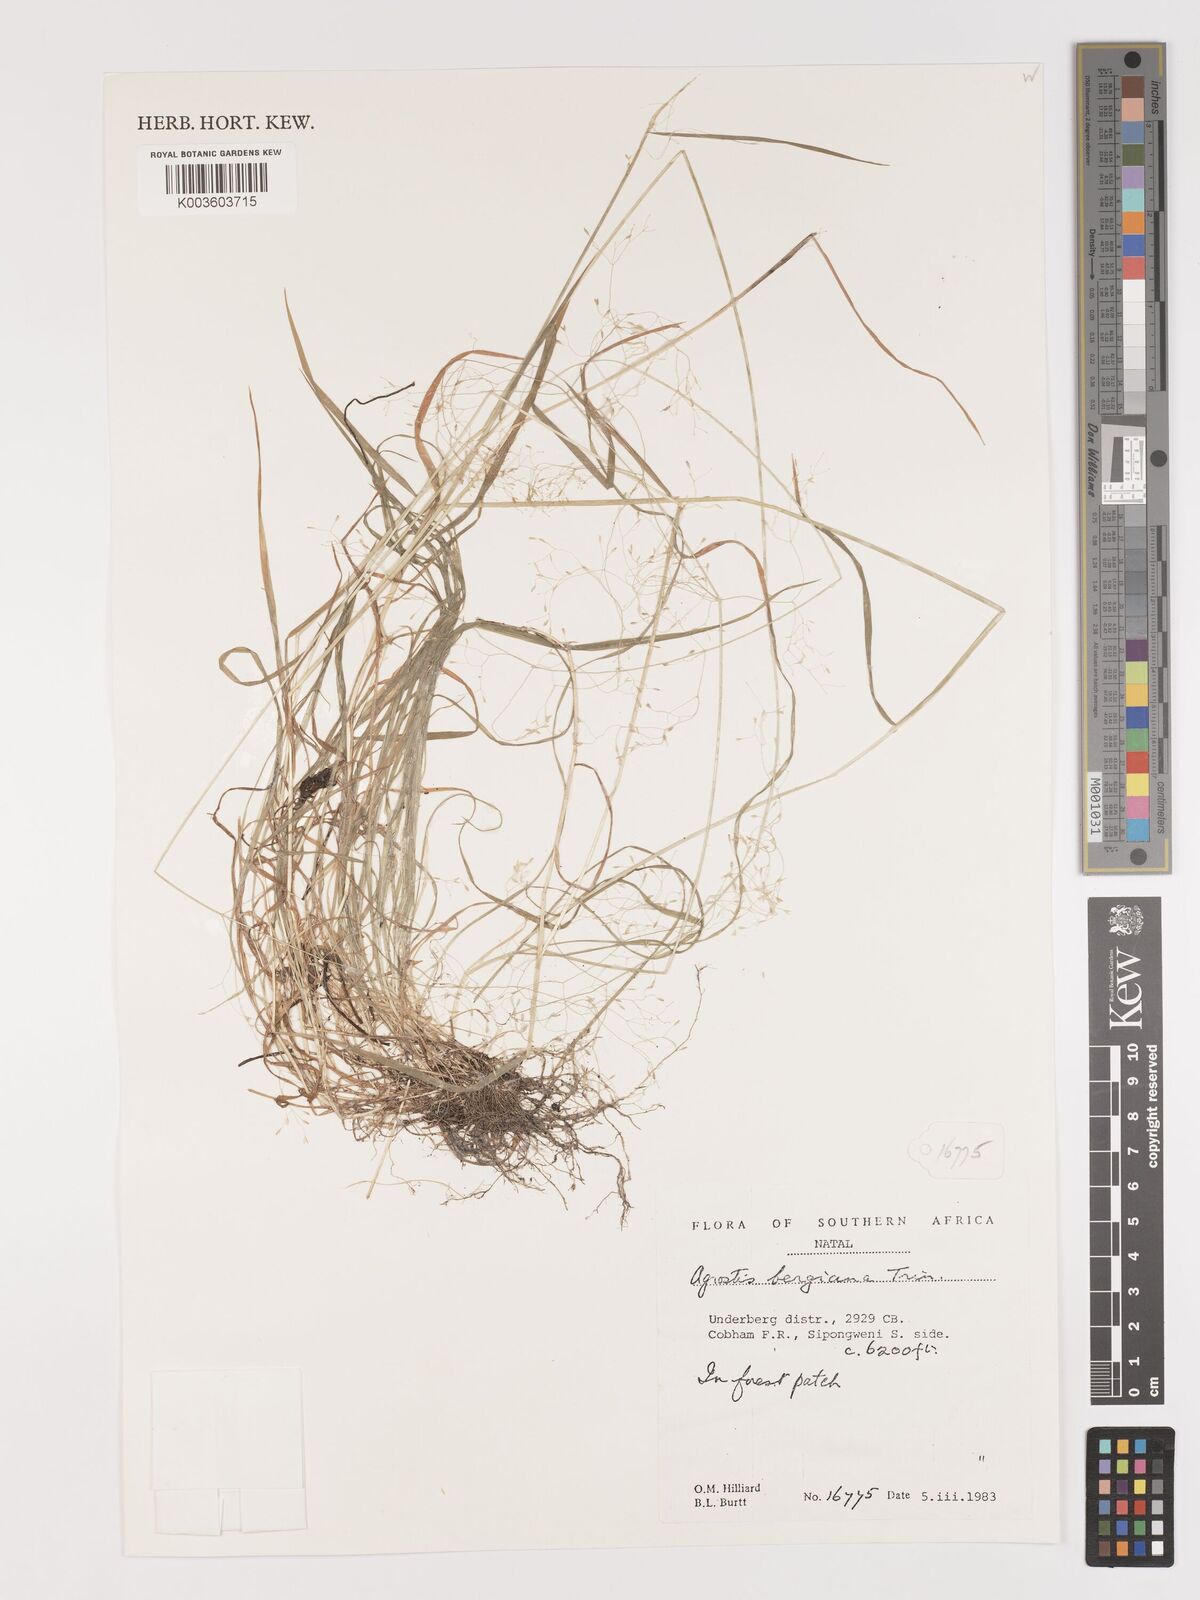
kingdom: Plantae
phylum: Tracheophyta
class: Liliopsida
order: Poales
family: Poaceae
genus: Agrostis
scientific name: Agrostis bergiana
